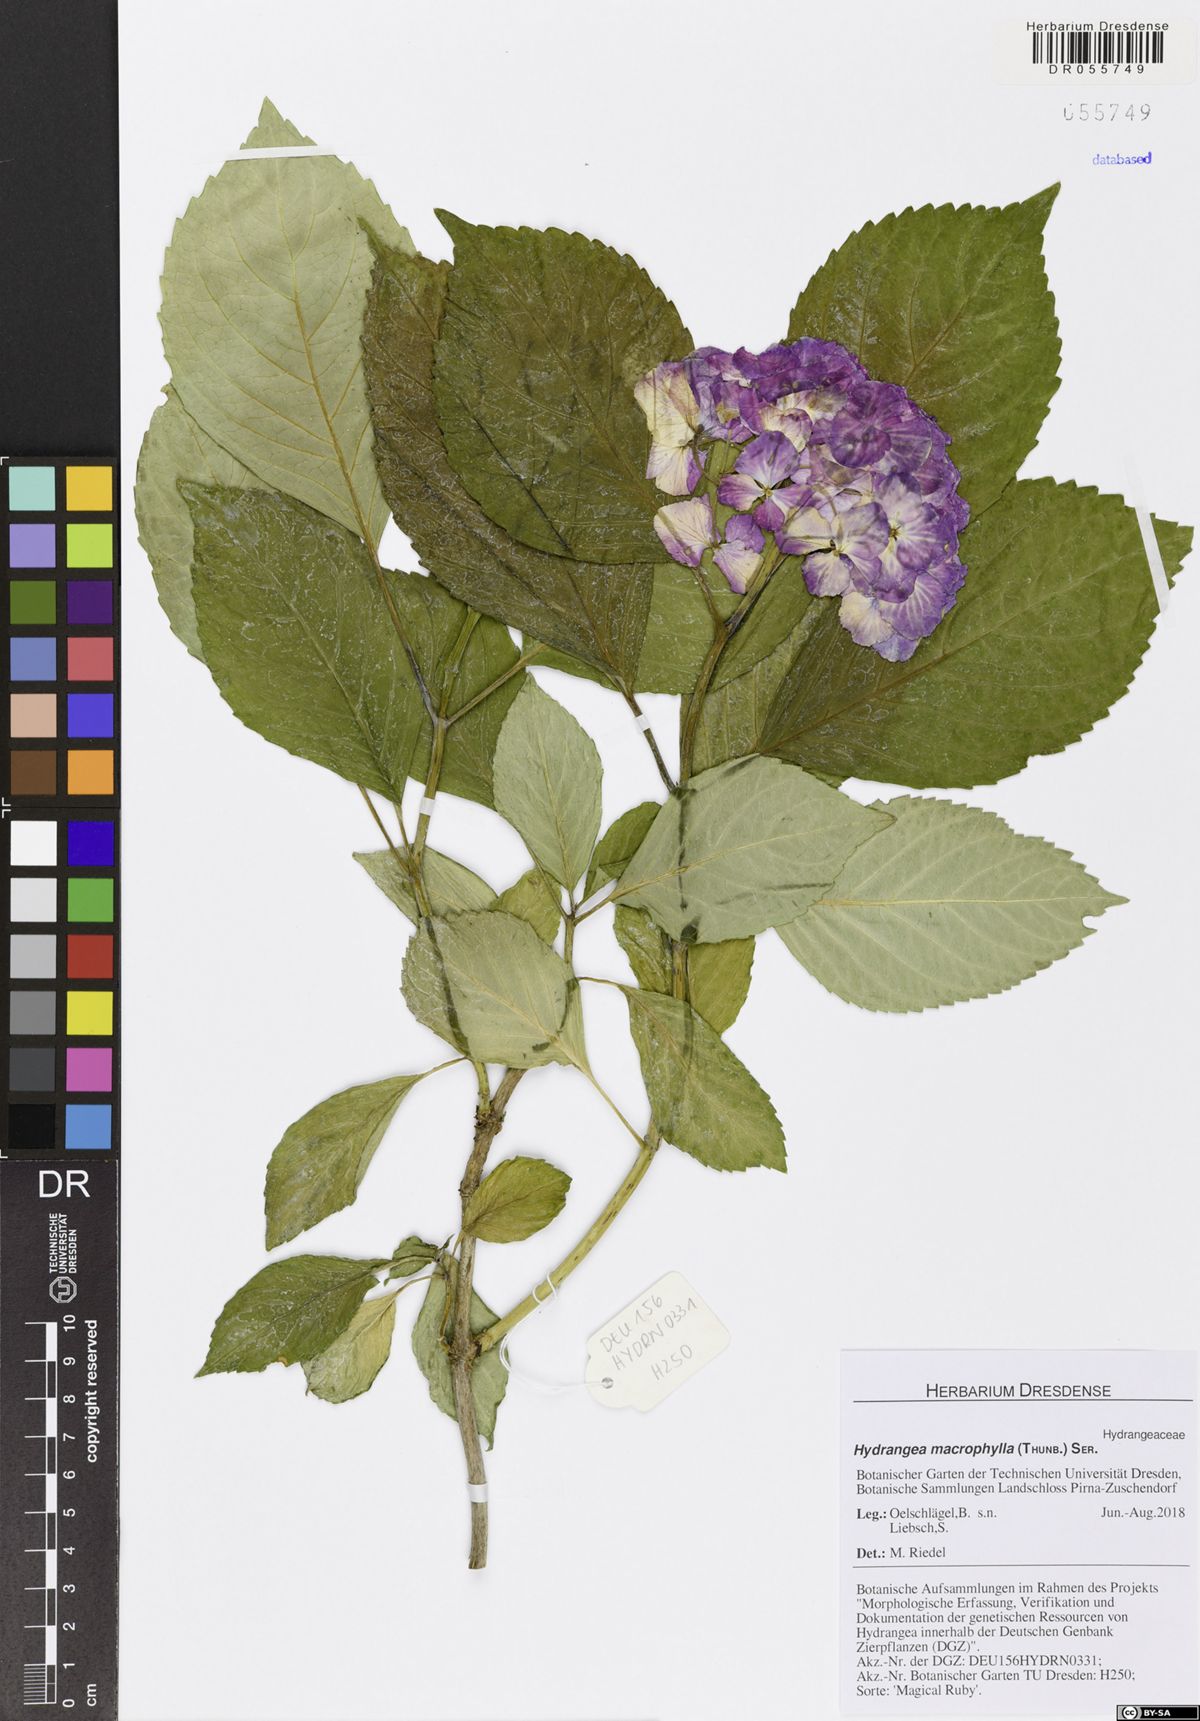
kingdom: Plantae
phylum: Tracheophyta
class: Magnoliopsida
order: Cornales
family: Hydrangeaceae
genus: Hydrangea
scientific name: Hydrangea macrophylla
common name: Hydrangea
